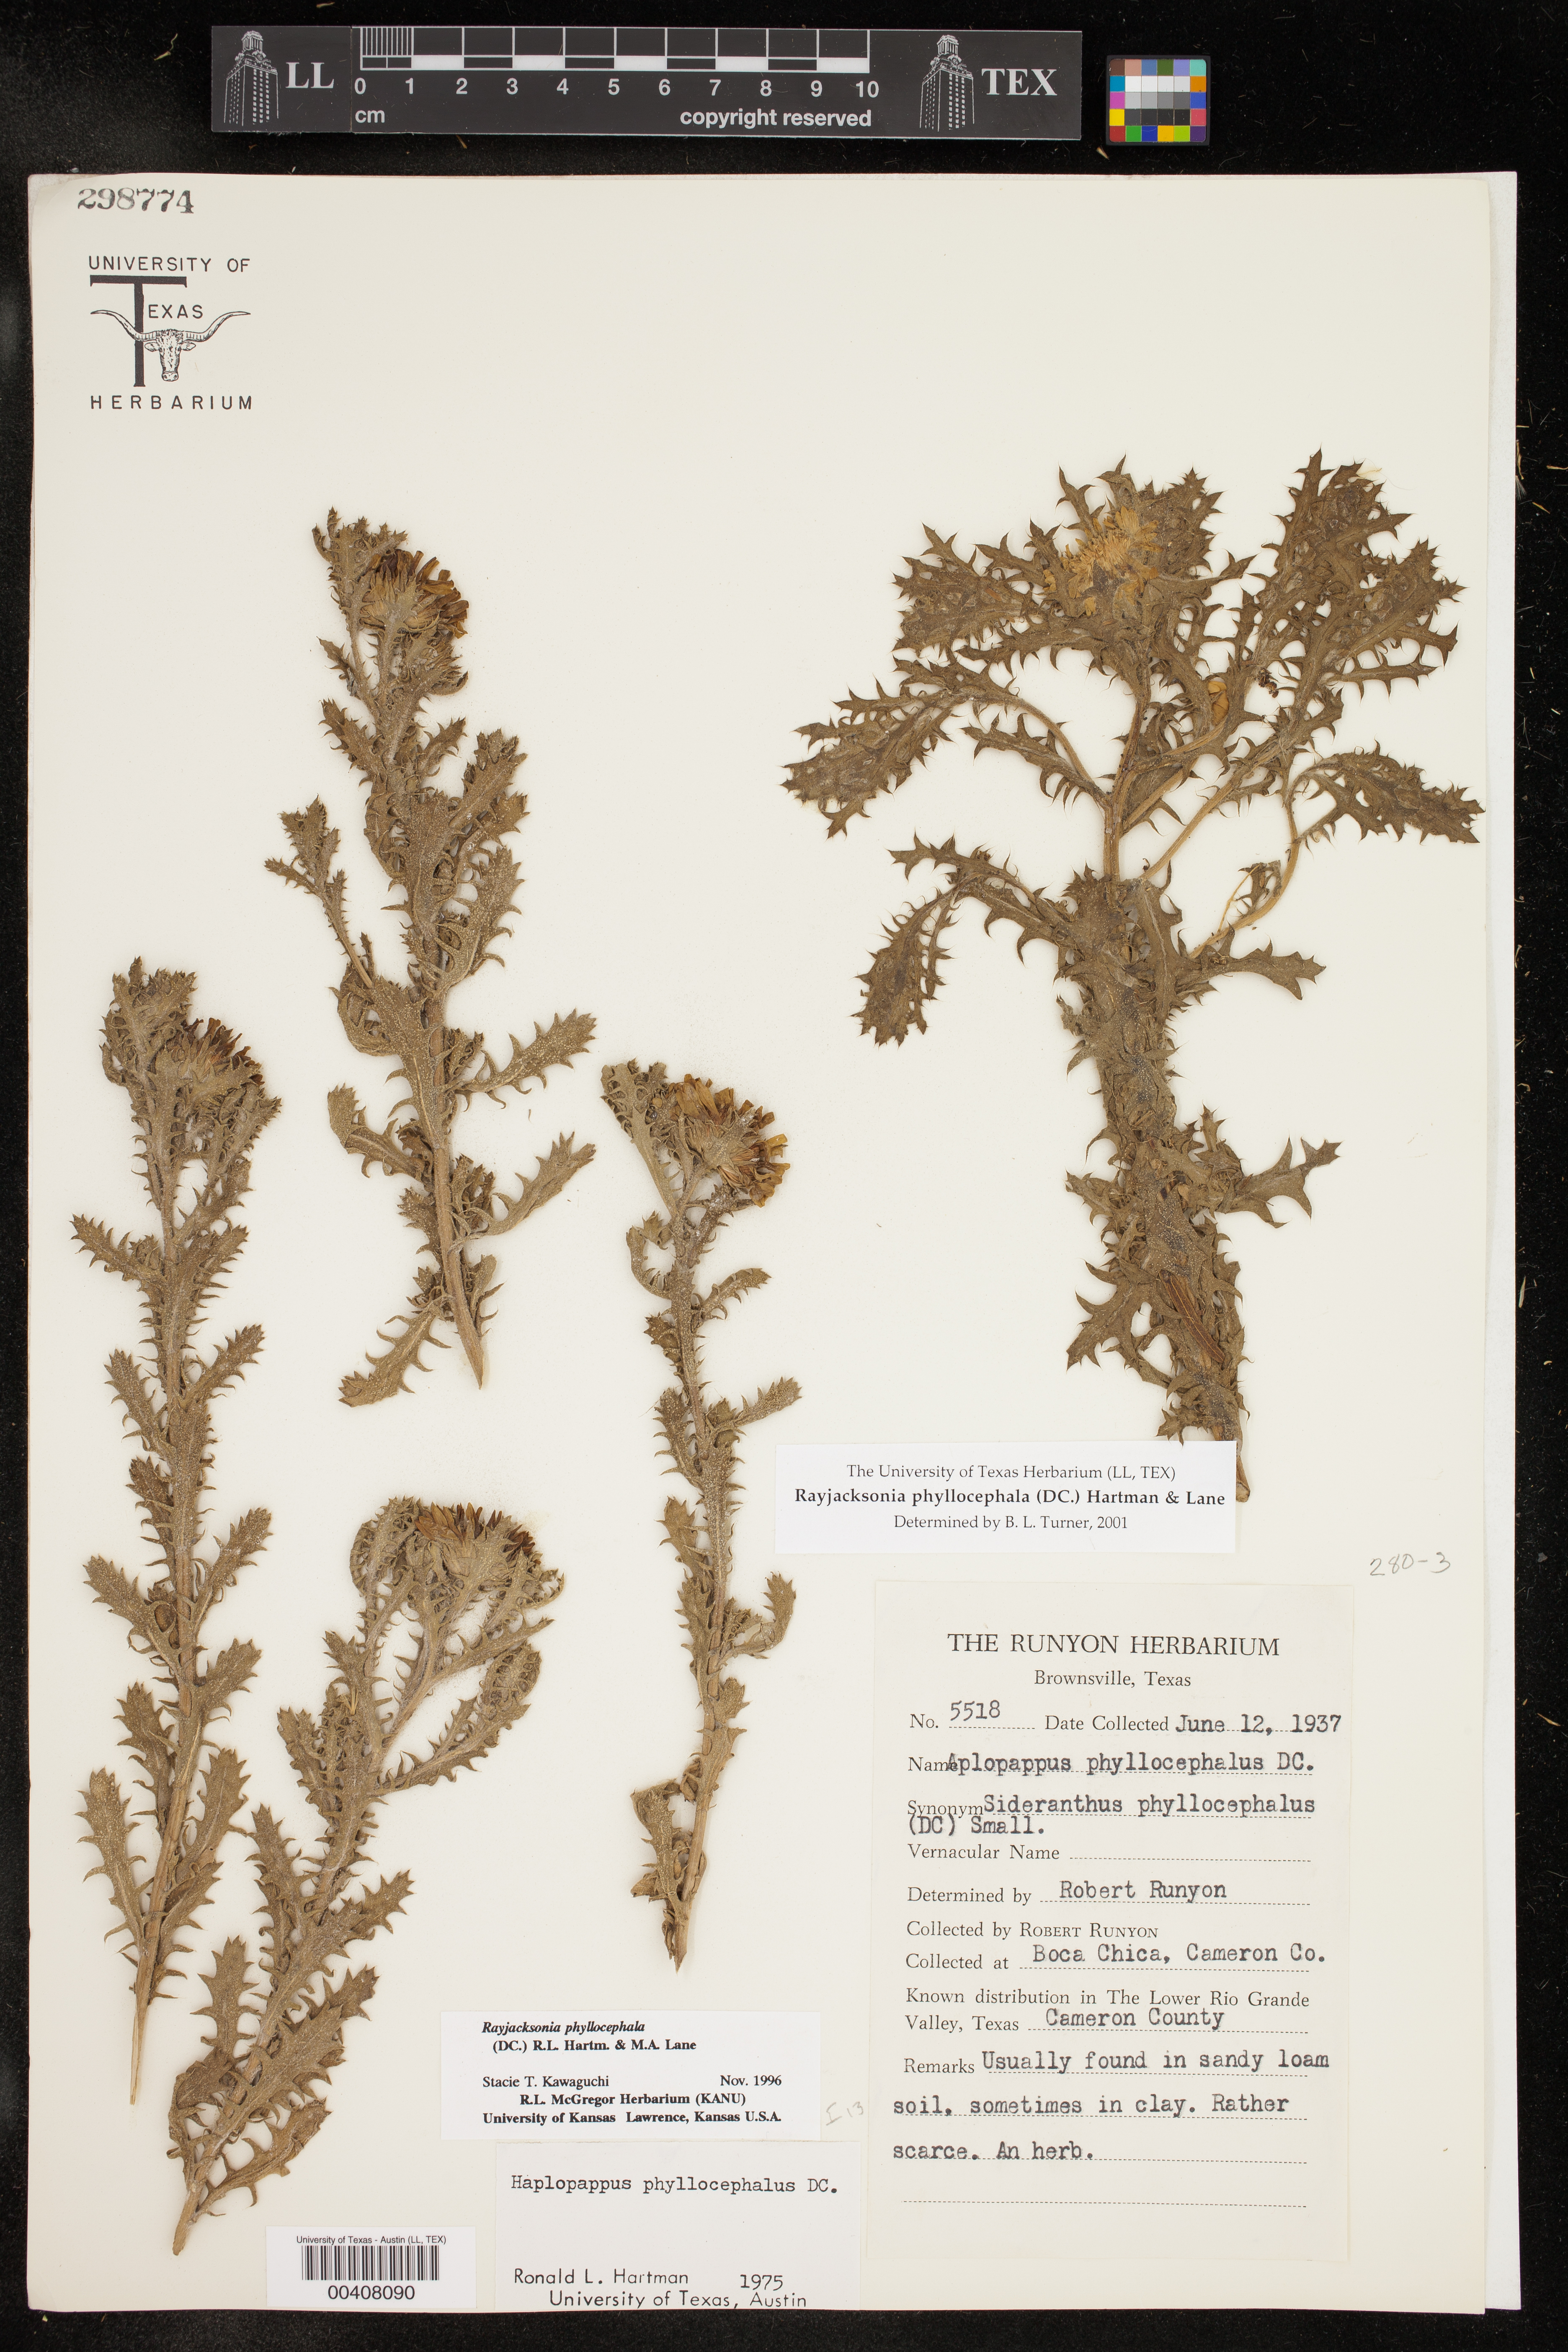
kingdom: Plantae
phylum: Tracheophyta
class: Magnoliopsida
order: Asterales
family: Asteraceae
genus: Rayjacksonia
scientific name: Rayjacksonia phyllocephala
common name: Gulf coast camphor daisy
